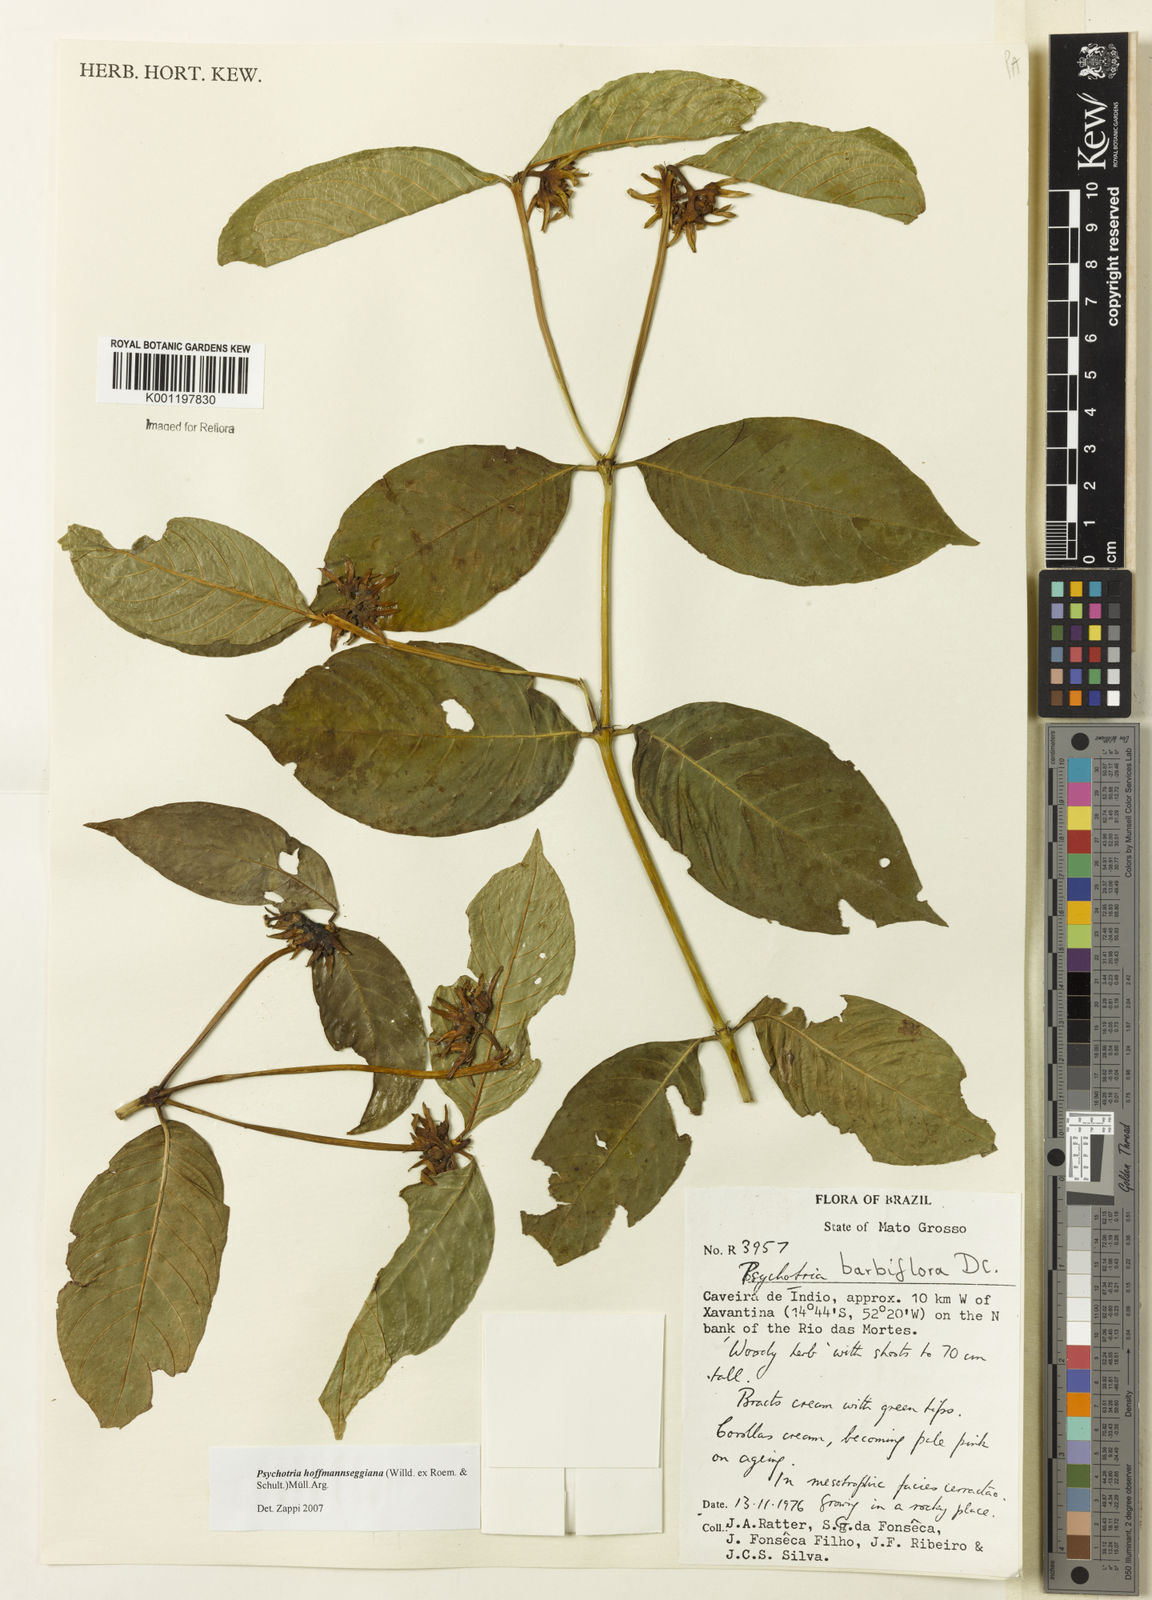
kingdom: Plantae
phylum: Tracheophyta
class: Magnoliopsida
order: Gentianales
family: Rubiaceae
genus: Psychotria
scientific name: Psychotria
